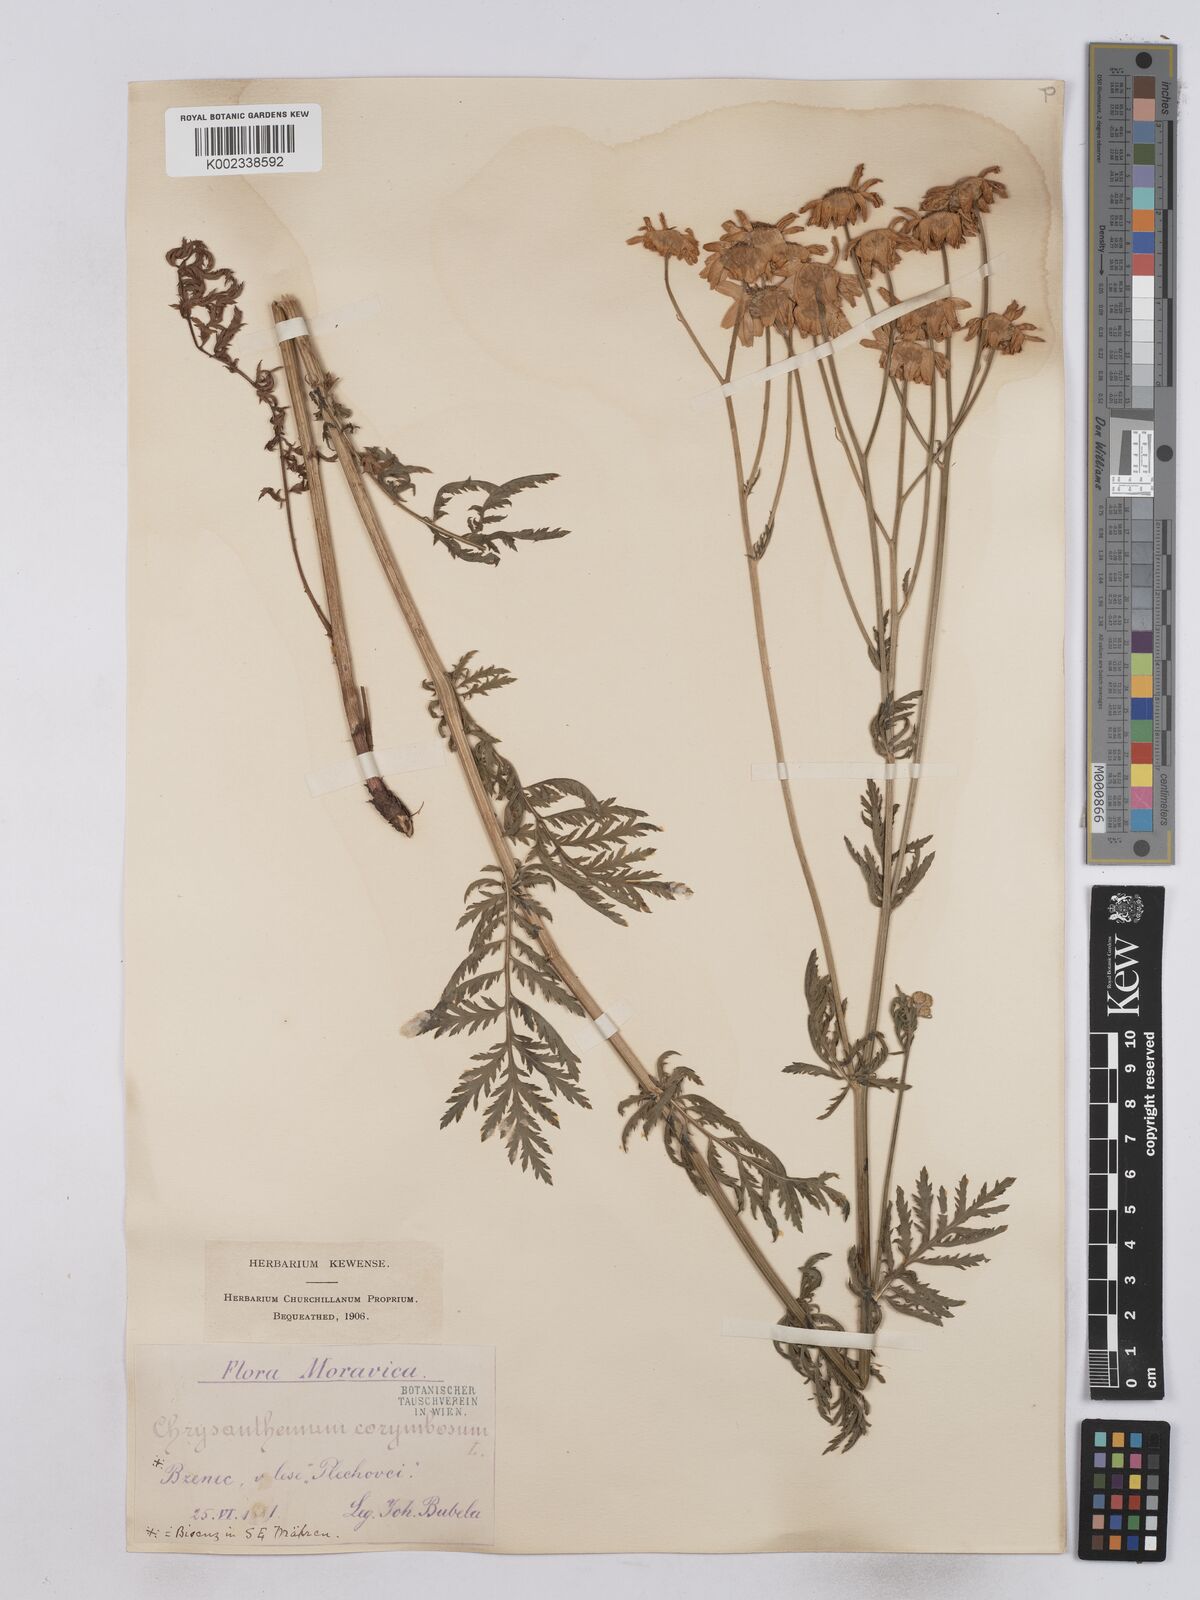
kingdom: Plantae
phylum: Tracheophyta
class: Magnoliopsida
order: Asterales
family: Asteraceae
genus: Tanacetum
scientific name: Tanacetum corymbosum
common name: Scentless feverfew
